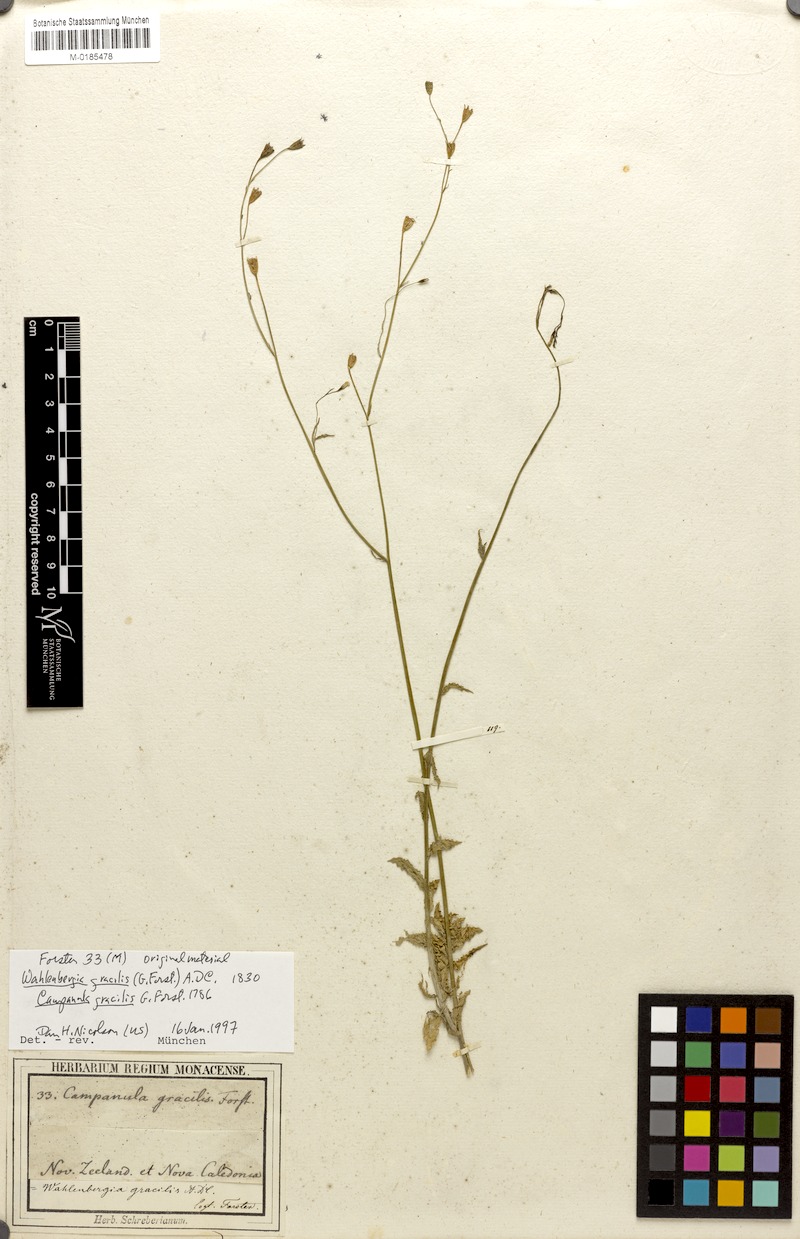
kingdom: Plantae
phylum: Tracheophyta
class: Magnoliopsida
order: Asterales
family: Campanulaceae
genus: Wahlenbergia
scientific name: Wahlenbergia gracilis
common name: Harebell
